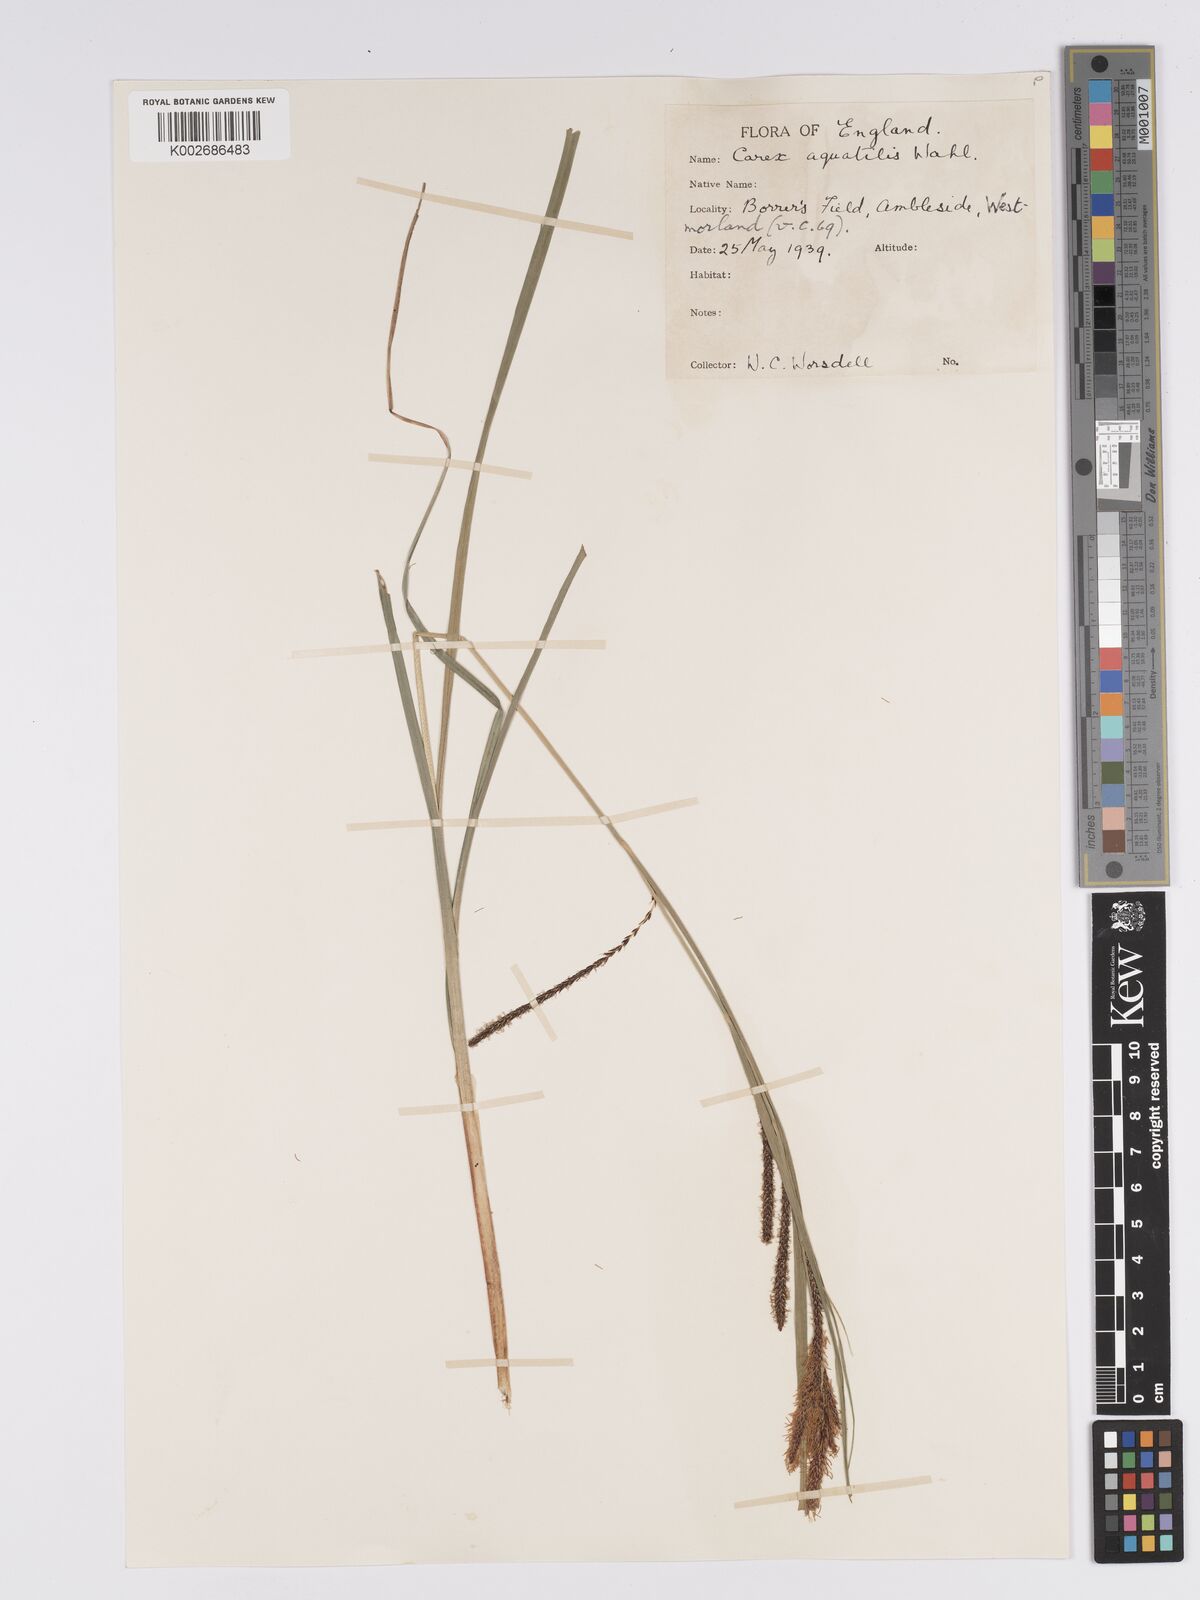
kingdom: Plantae
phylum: Tracheophyta
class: Liliopsida
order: Poales
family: Cyperaceae
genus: Carex
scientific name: Carex microcarpa
